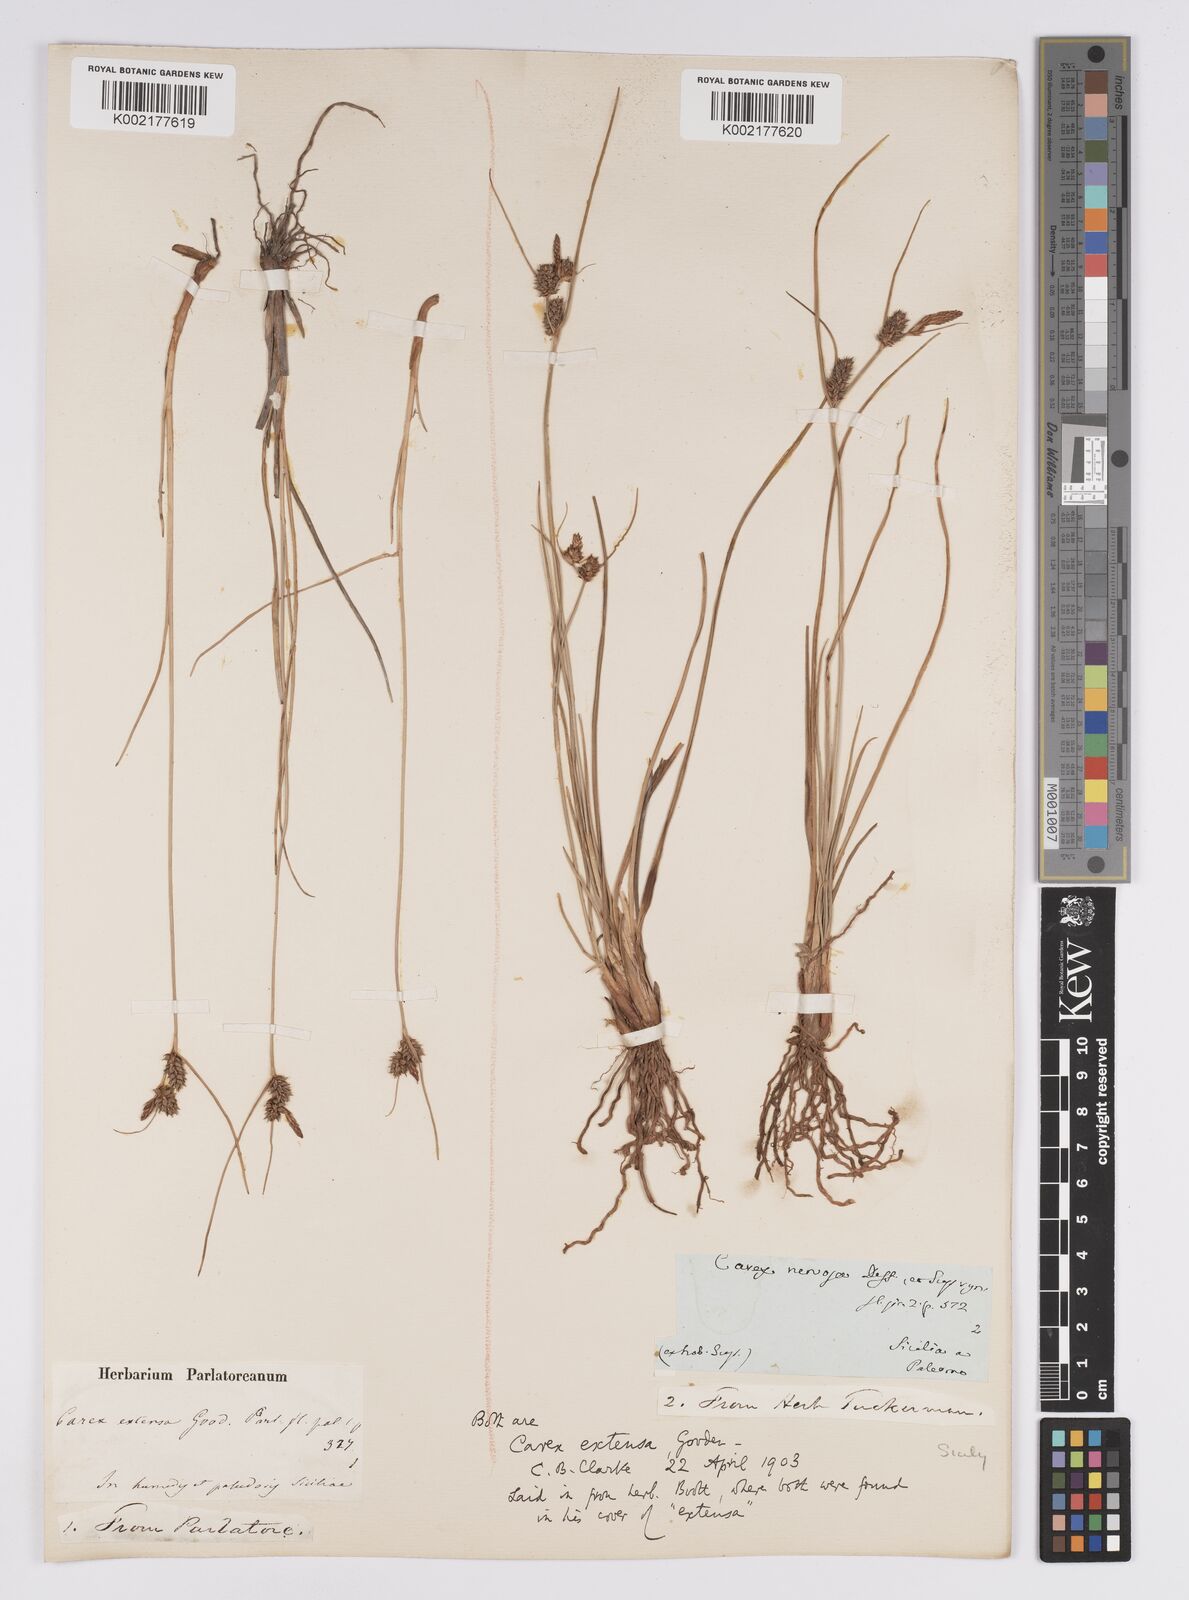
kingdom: Plantae
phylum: Tracheophyta
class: Liliopsida
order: Poales
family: Cyperaceae
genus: Carex
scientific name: Carex extensa
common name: Long-bracted sedge
